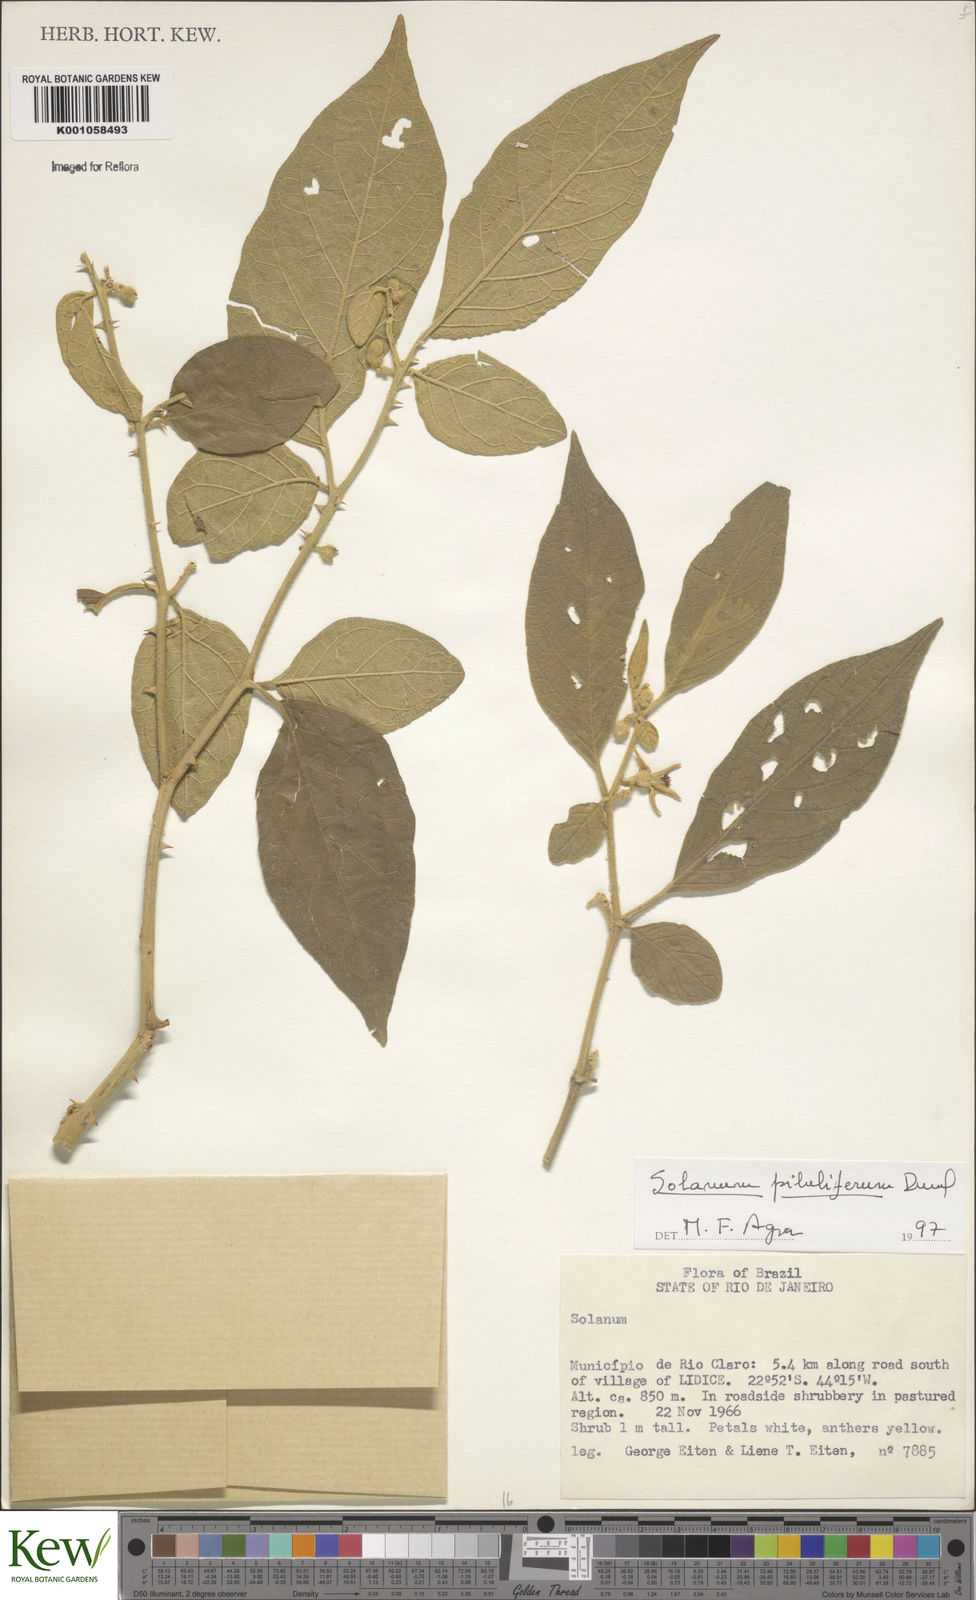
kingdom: Plantae
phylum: Tracheophyta
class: Magnoliopsida
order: Solanales
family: Solanaceae
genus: Solanum
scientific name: Solanum piluliferum
